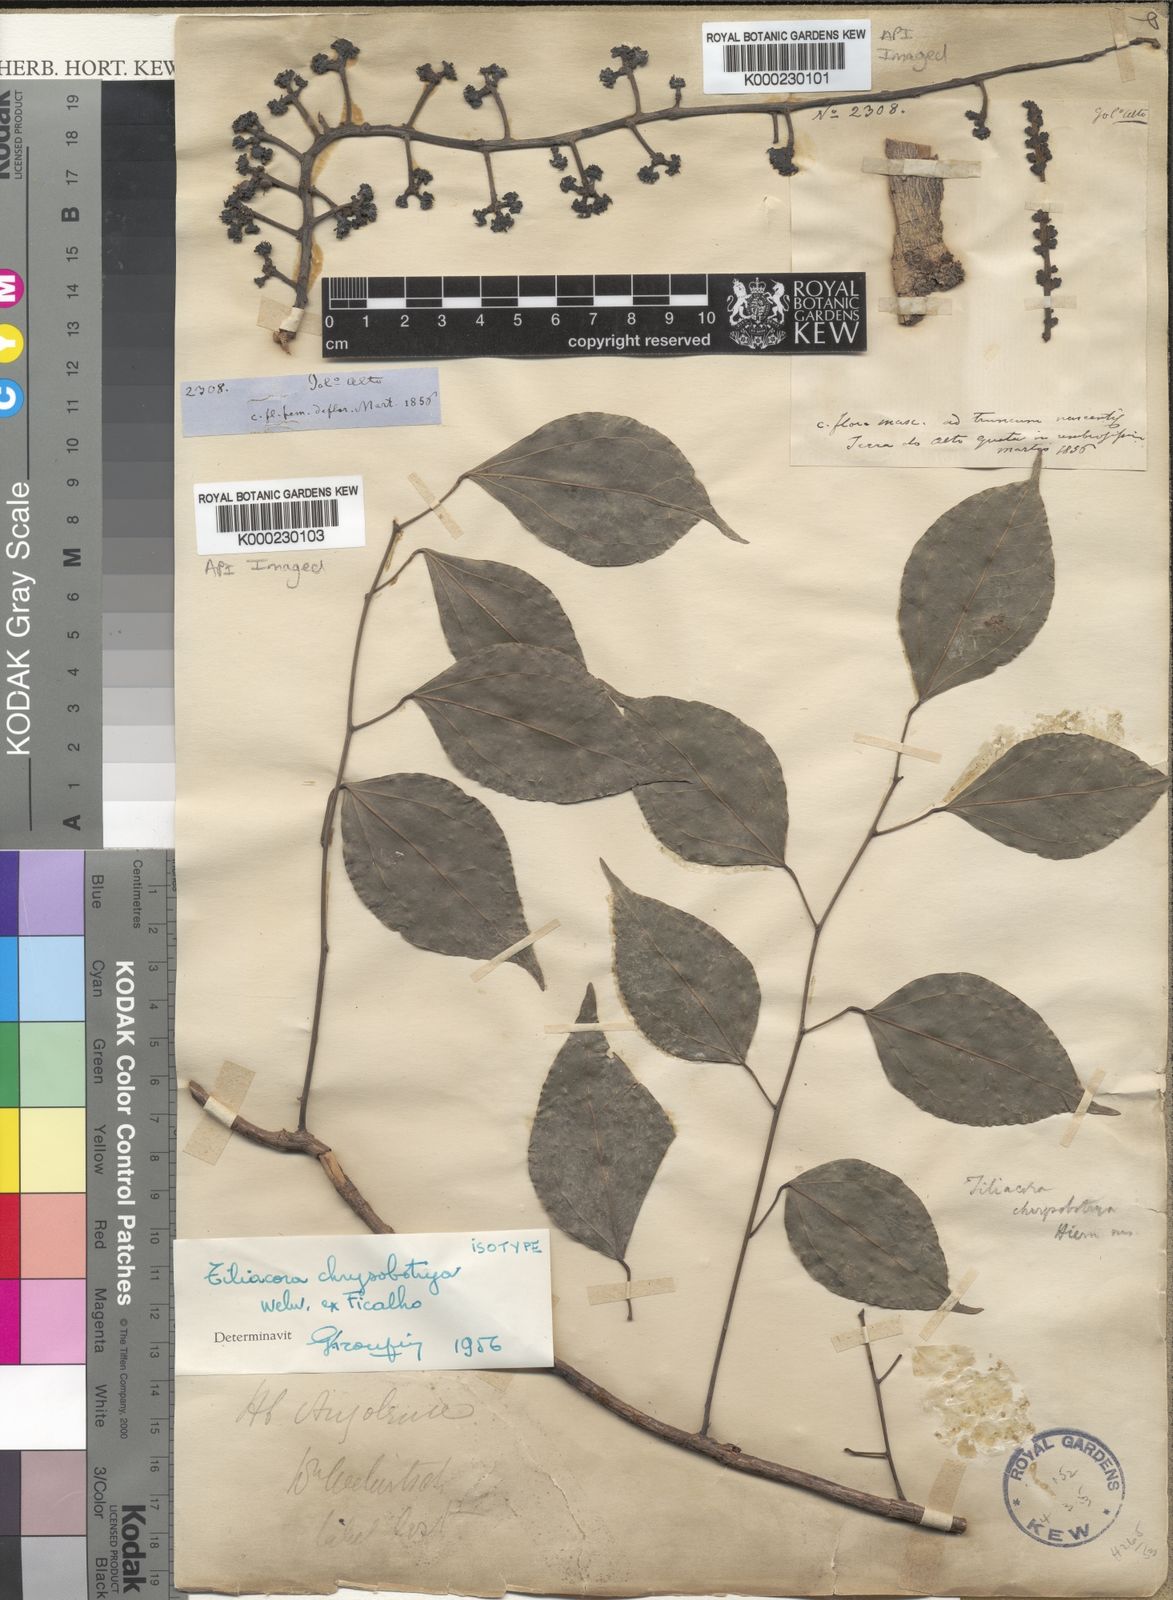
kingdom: Plantae
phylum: Tracheophyta
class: Magnoliopsida
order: Ranunculales
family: Menispermaceae
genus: Tiliacora
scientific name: Tiliacora
